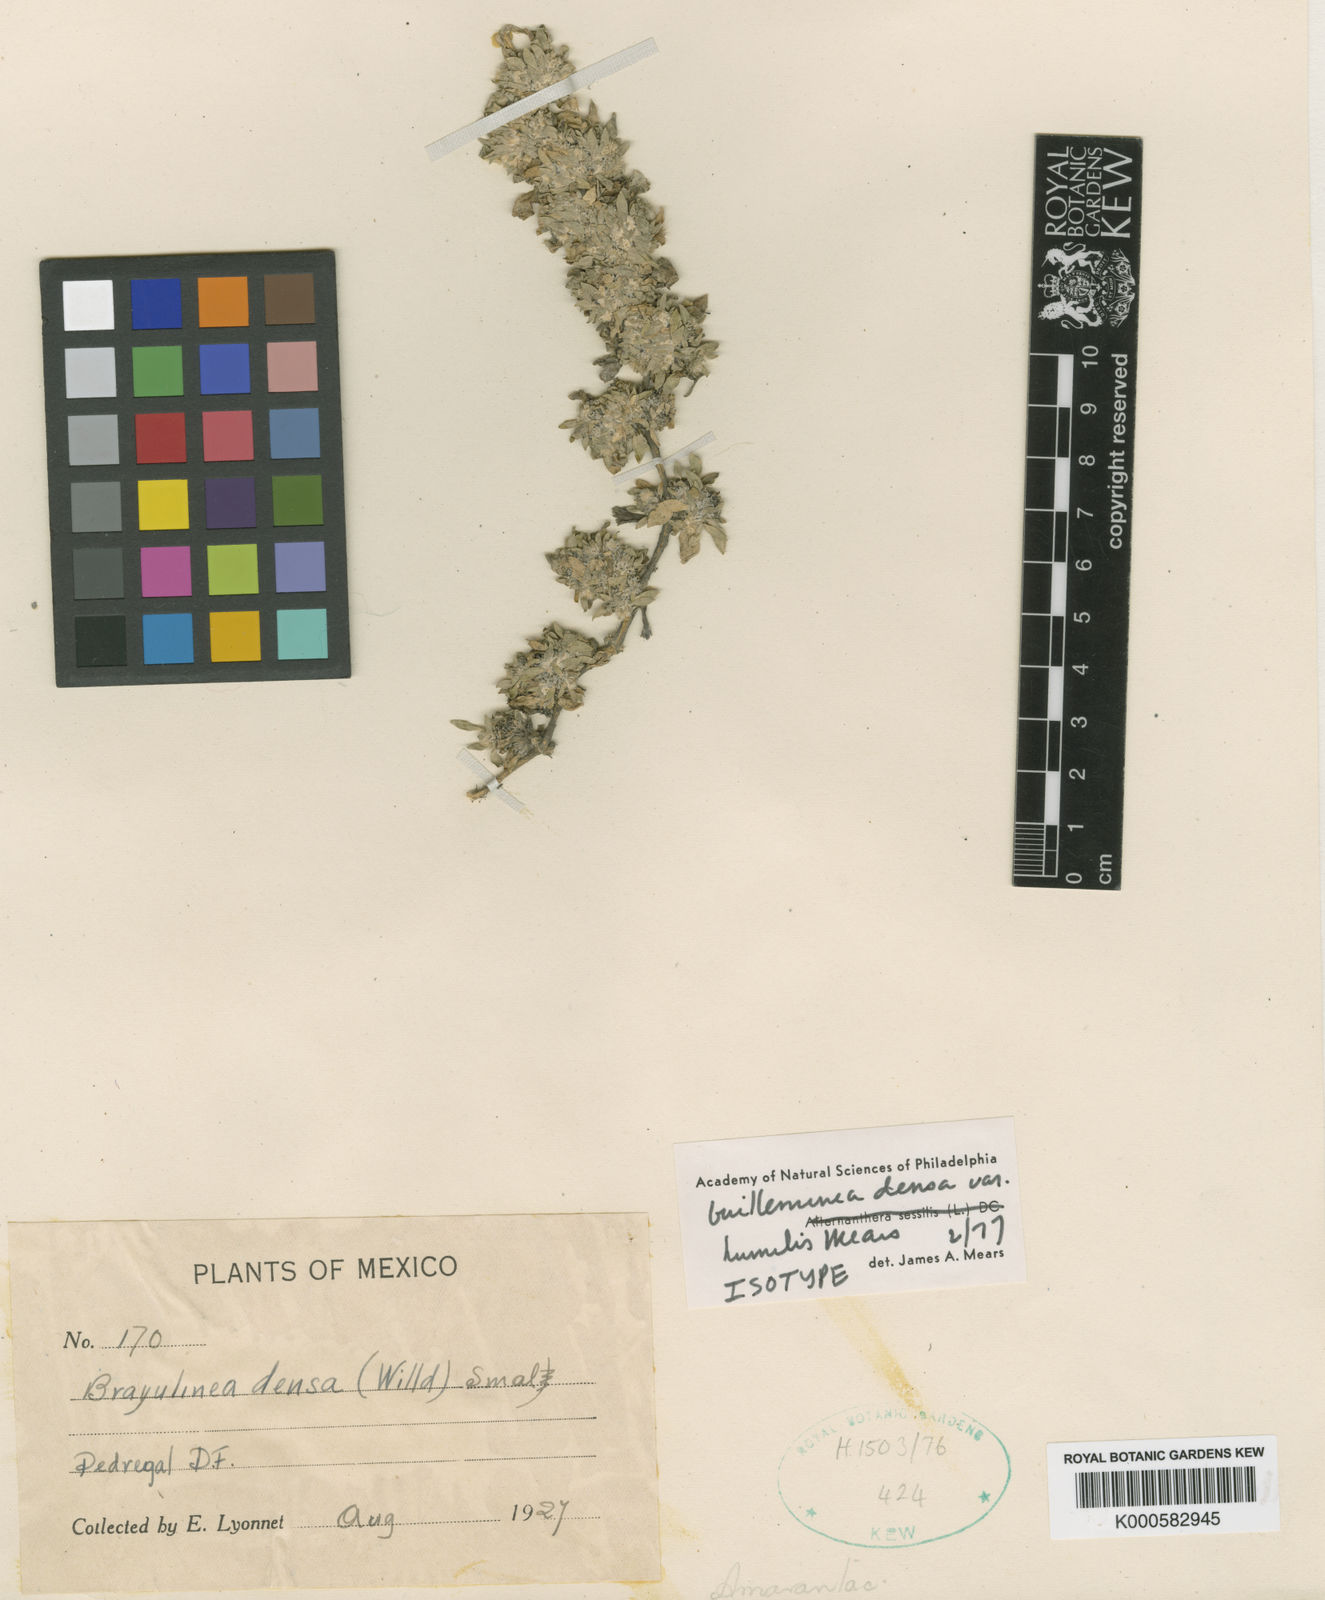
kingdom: Plantae
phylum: Tracheophyta
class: Magnoliopsida
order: Caryophyllales
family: Amaranthaceae
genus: Guilleminea
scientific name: Guilleminea densa
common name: Small matweed
